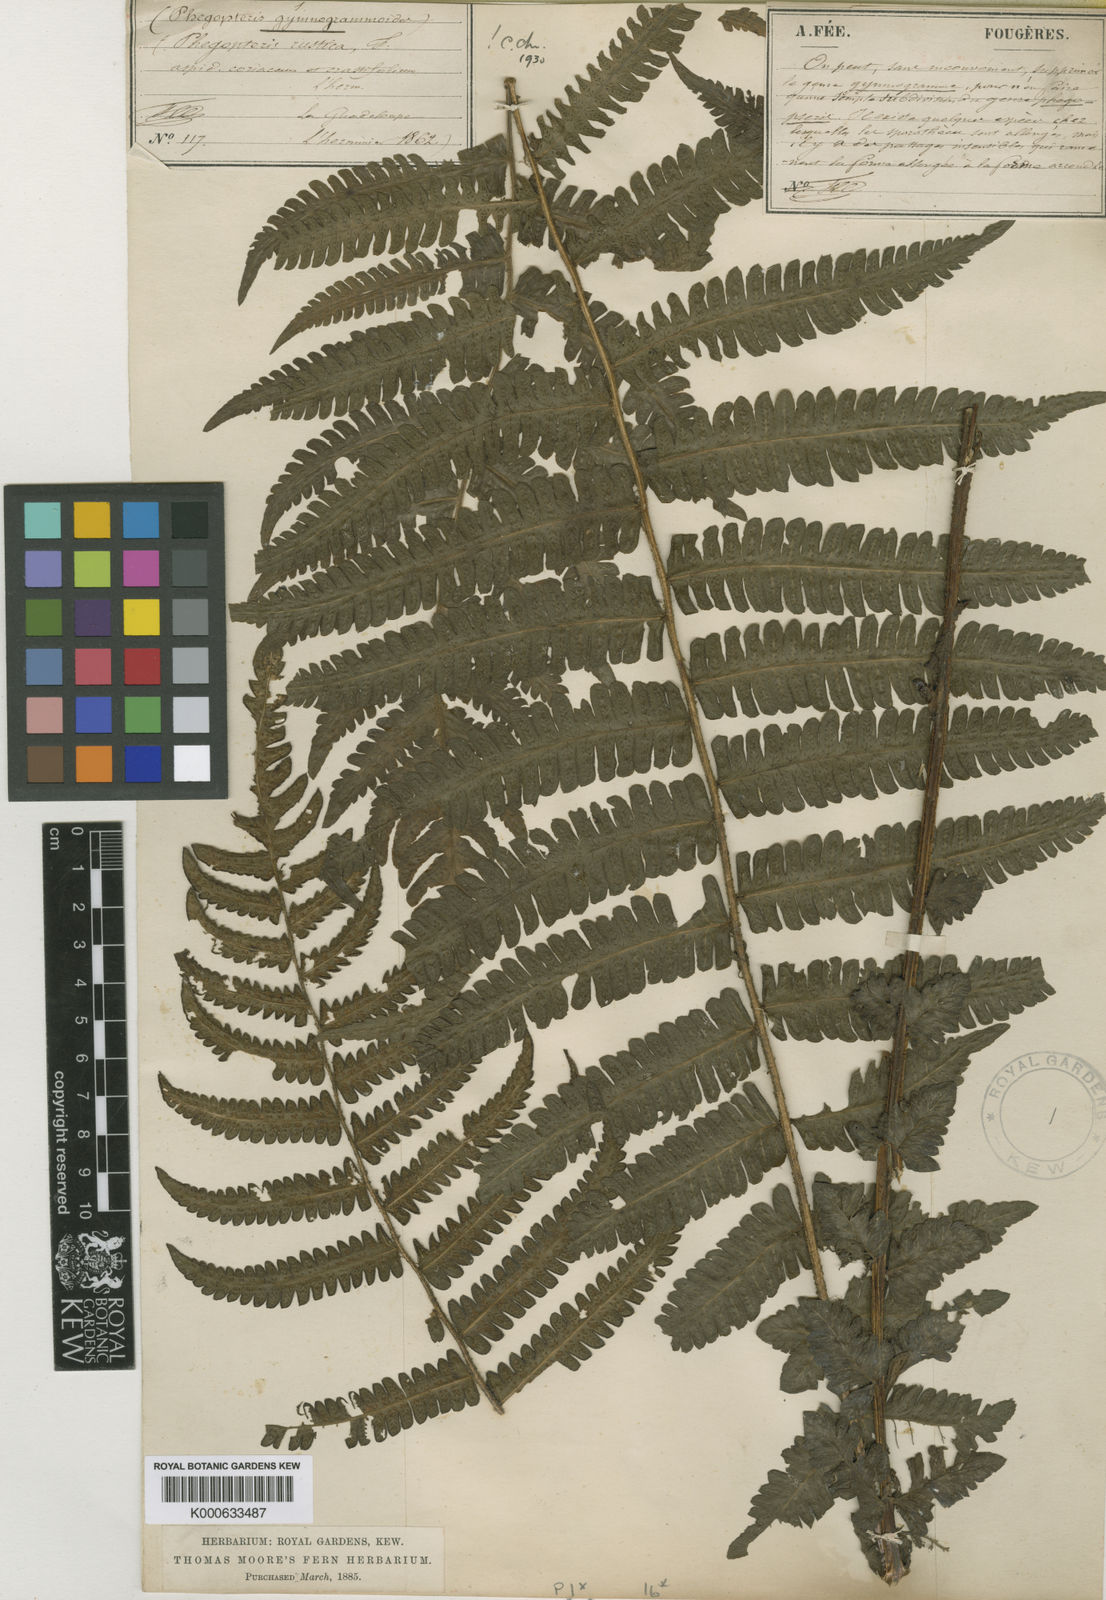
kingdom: Plantae
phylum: Tracheophyta
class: Polypodiopsida
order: Polypodiales
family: Thelypteridaceae
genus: Amauropelta
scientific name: Amauropelta rustica
